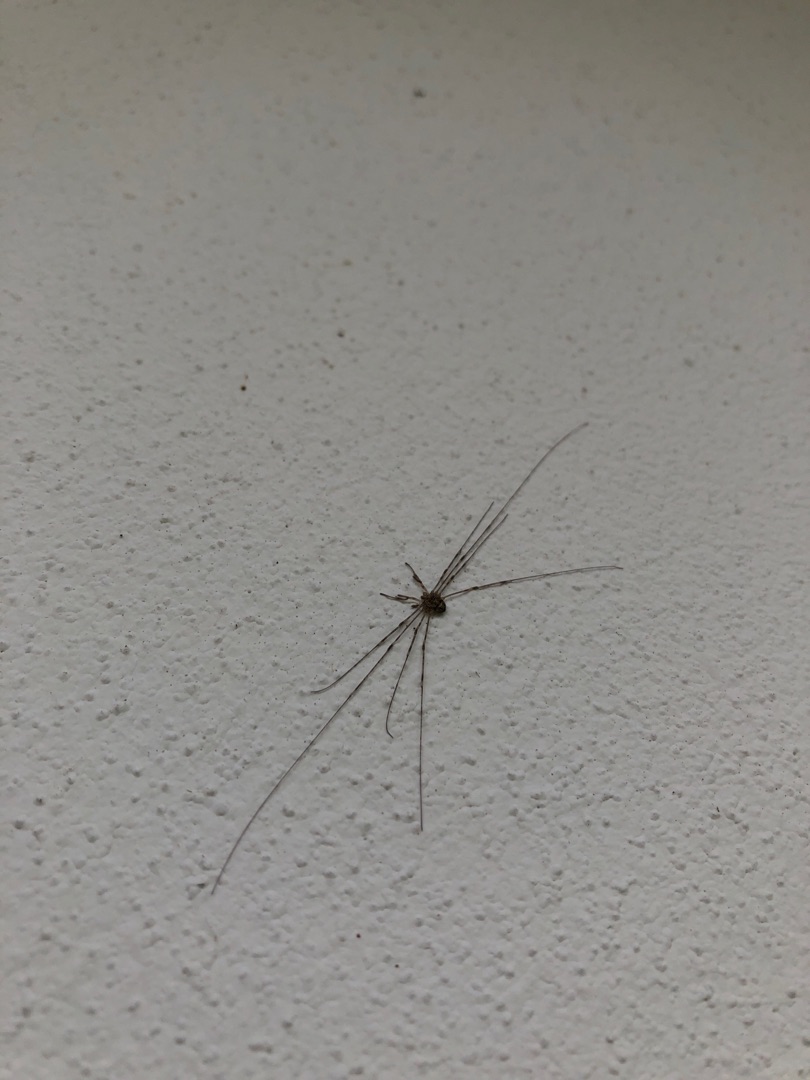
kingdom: Animalia
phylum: Arthropoda
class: Arachnida
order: Opiliones
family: Phalangiidae
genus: Dicranopalpus
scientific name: Dicranopalpus ramosus
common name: Gaffelmejer
